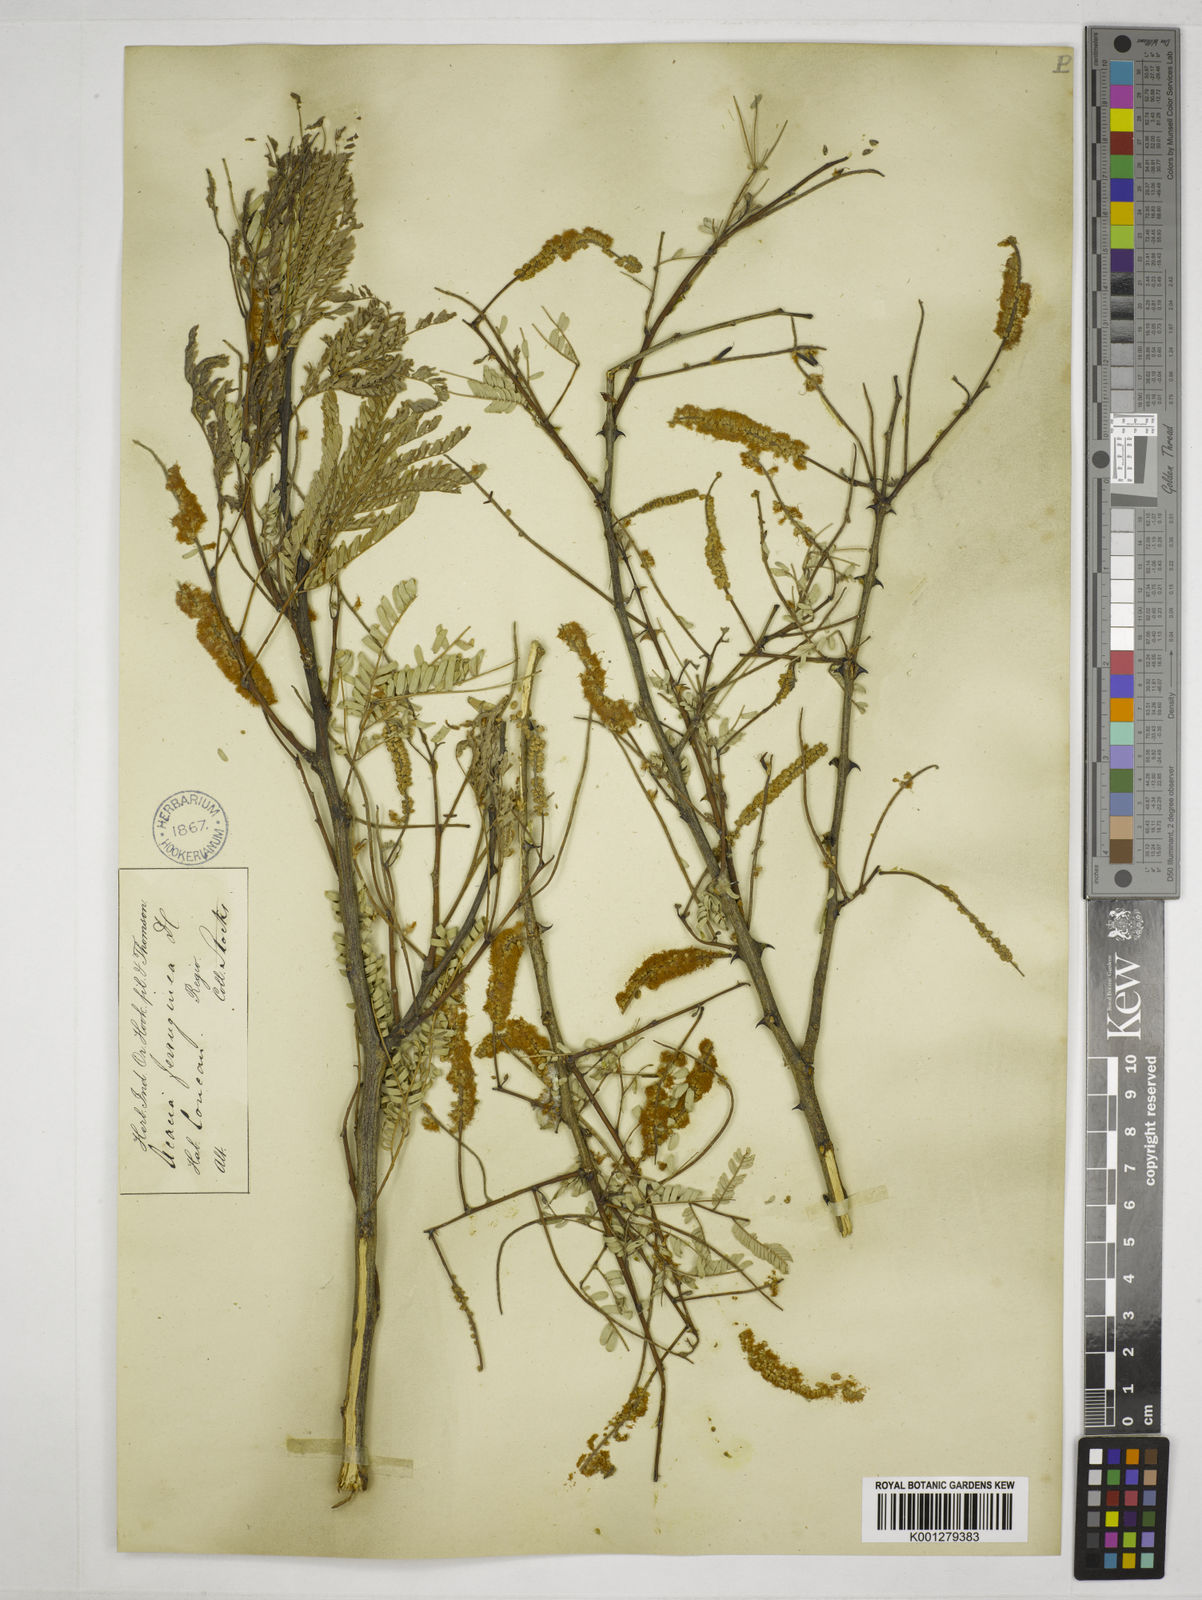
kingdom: Plantae
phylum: Tracheophyta
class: Magnoliopsida
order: Fabales
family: Fabaceae
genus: Senegalia
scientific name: Senegalia ferruginea
